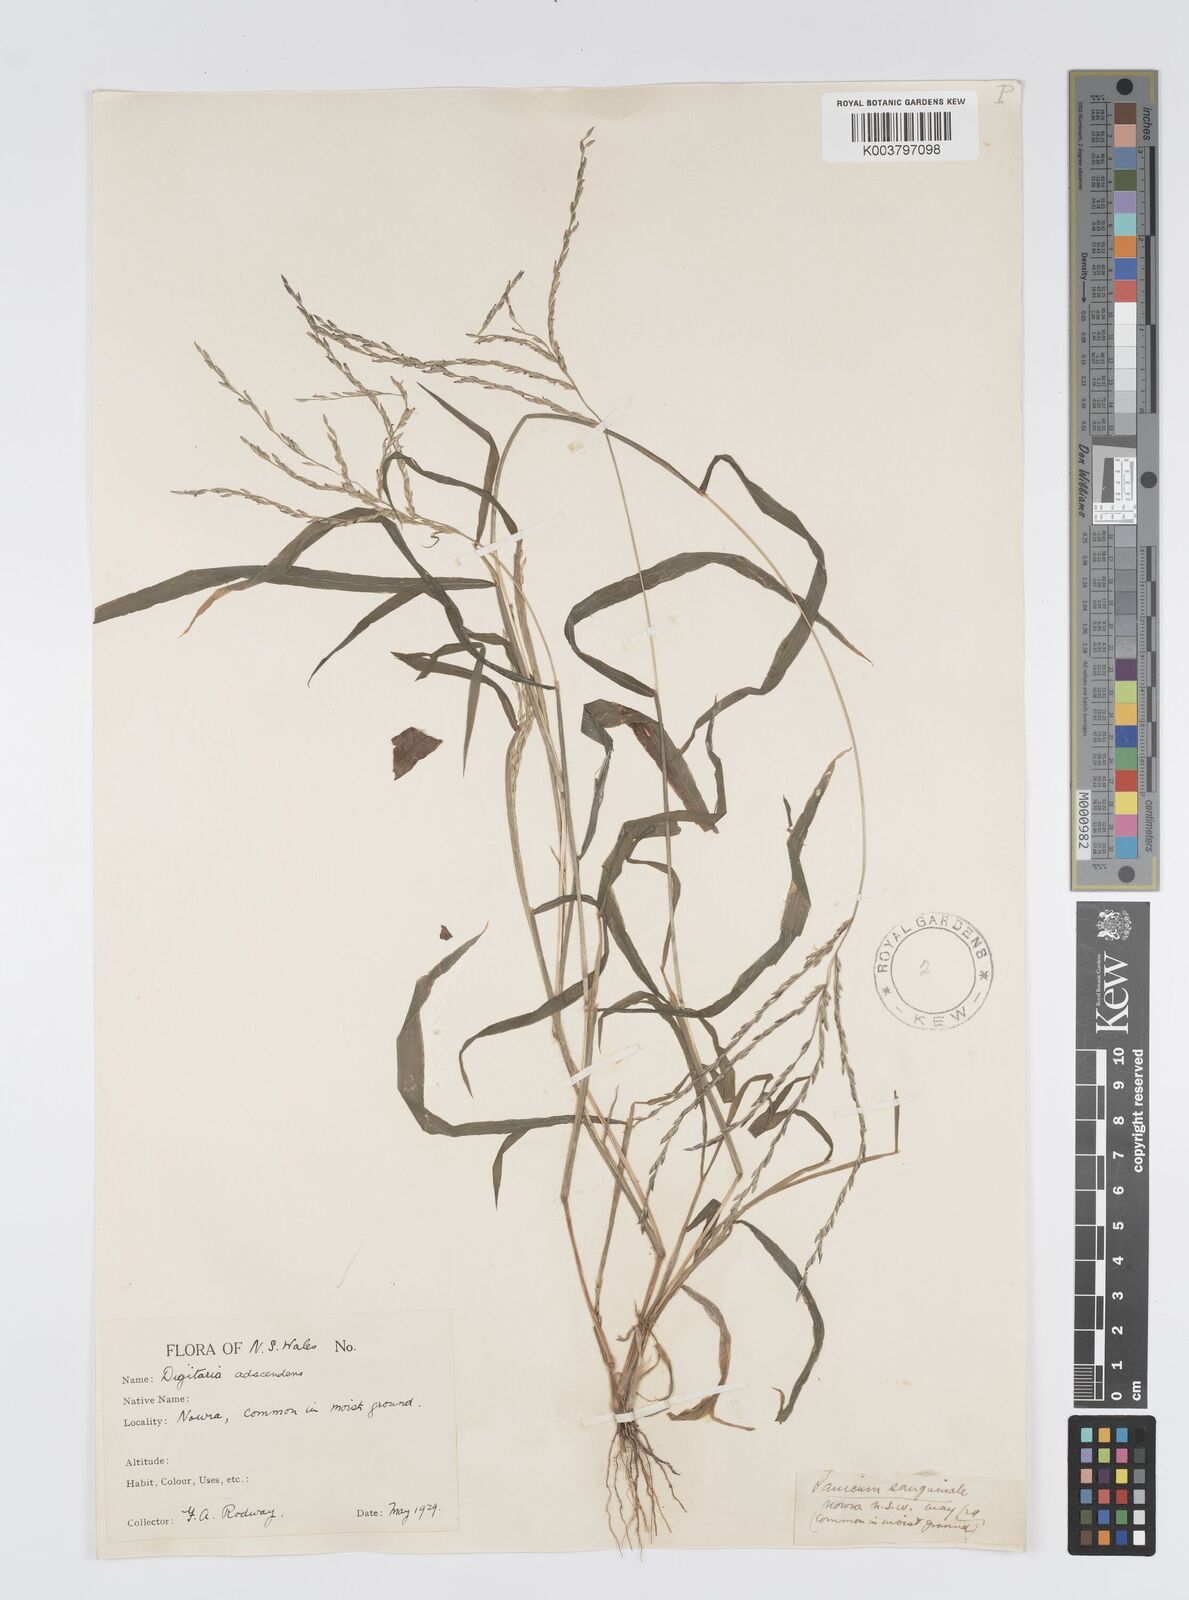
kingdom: Plantae
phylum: Tracheophyta
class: Liliopsida
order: Poales
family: Poaceae
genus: Digitaria
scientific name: Digitaria ciliaris
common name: Tropical finger-grass
